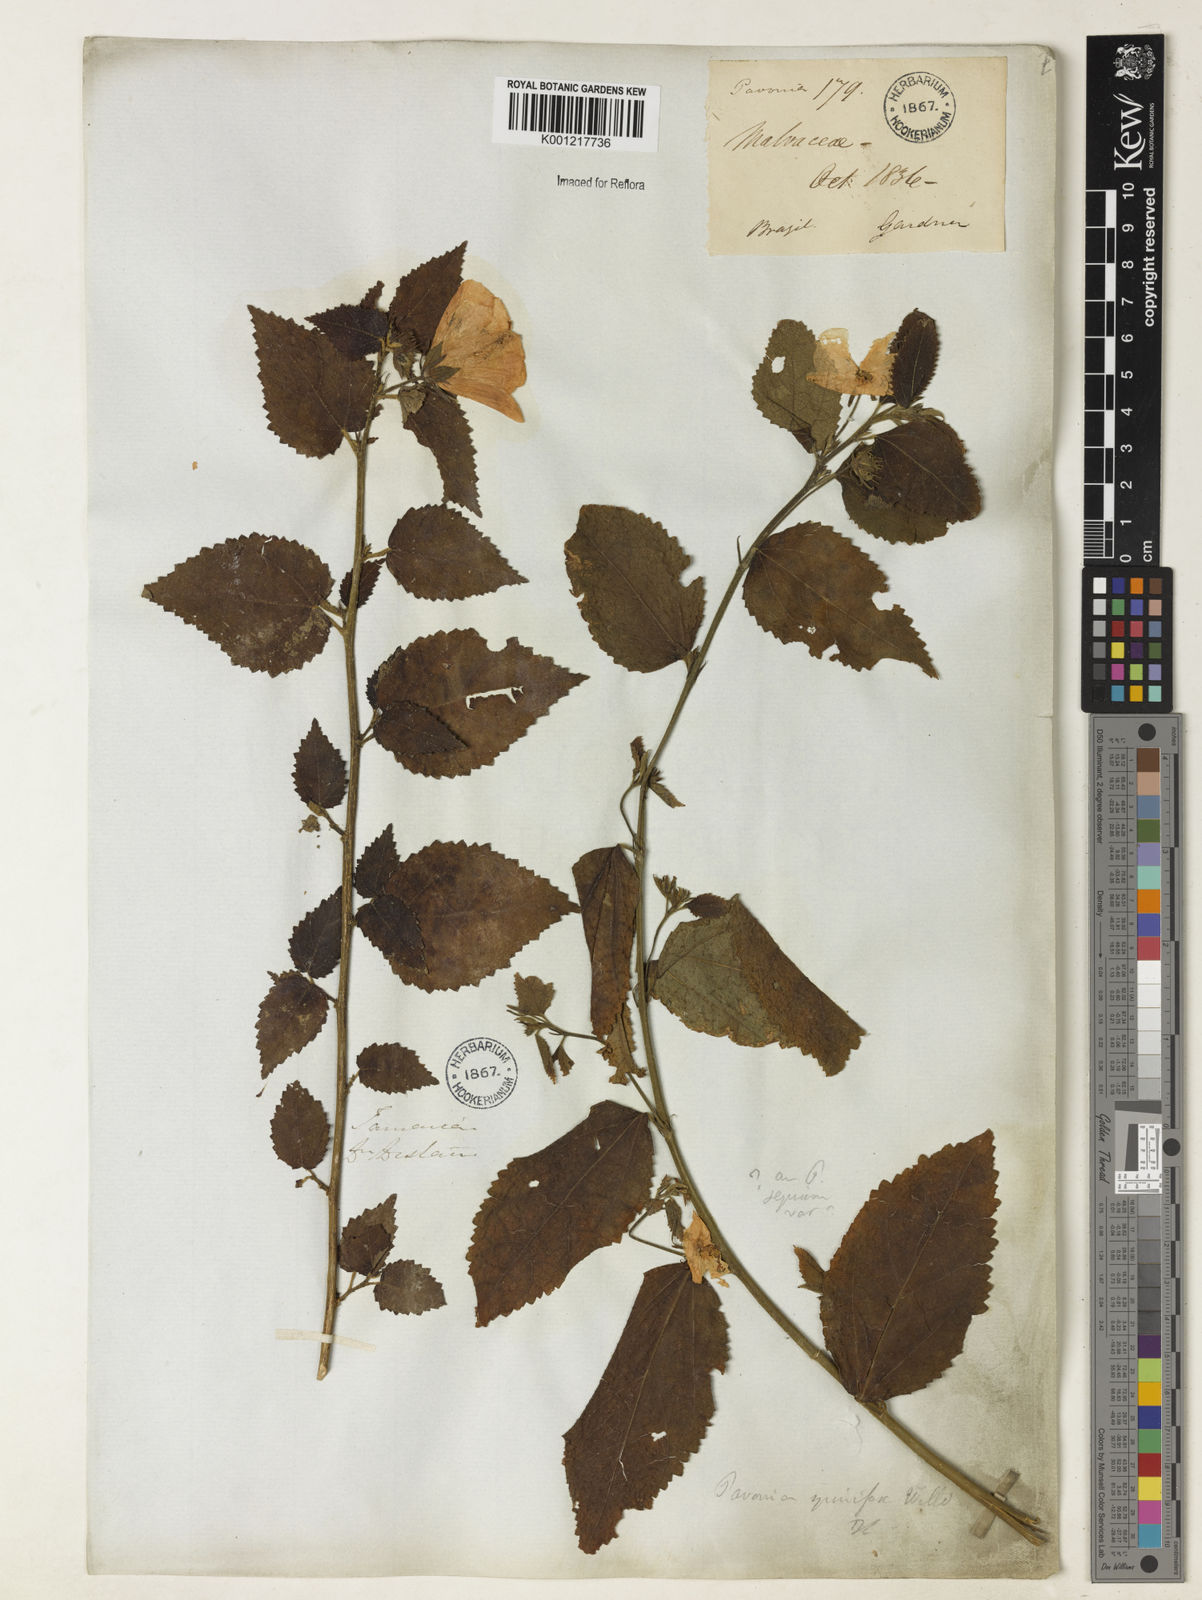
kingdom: Plantae
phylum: Tracheophyta
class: Magnoliopsida
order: Malvales
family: Malvaceae
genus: Pavonia
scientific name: Pavonia spinifex
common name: Ginger bush
